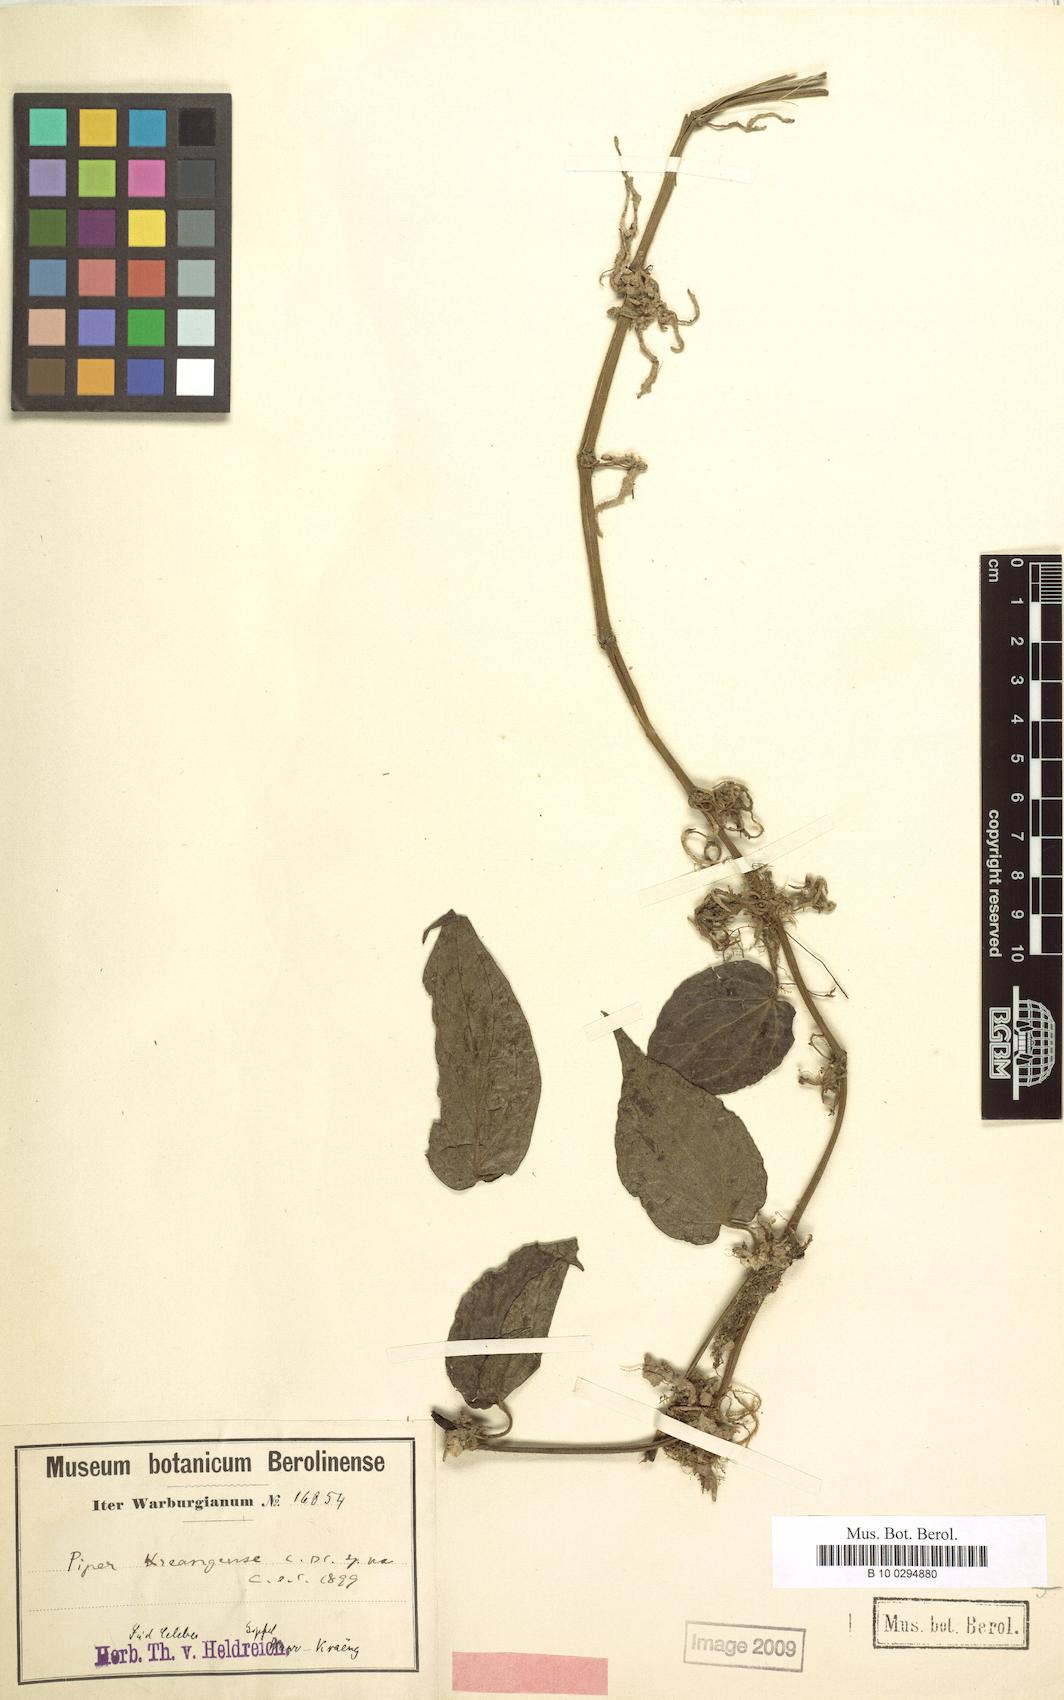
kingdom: Plantae
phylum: Tracheophyta
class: Magnoliopsida
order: Piperales
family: Piperaceae
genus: Piper
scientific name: Piper kreangense
